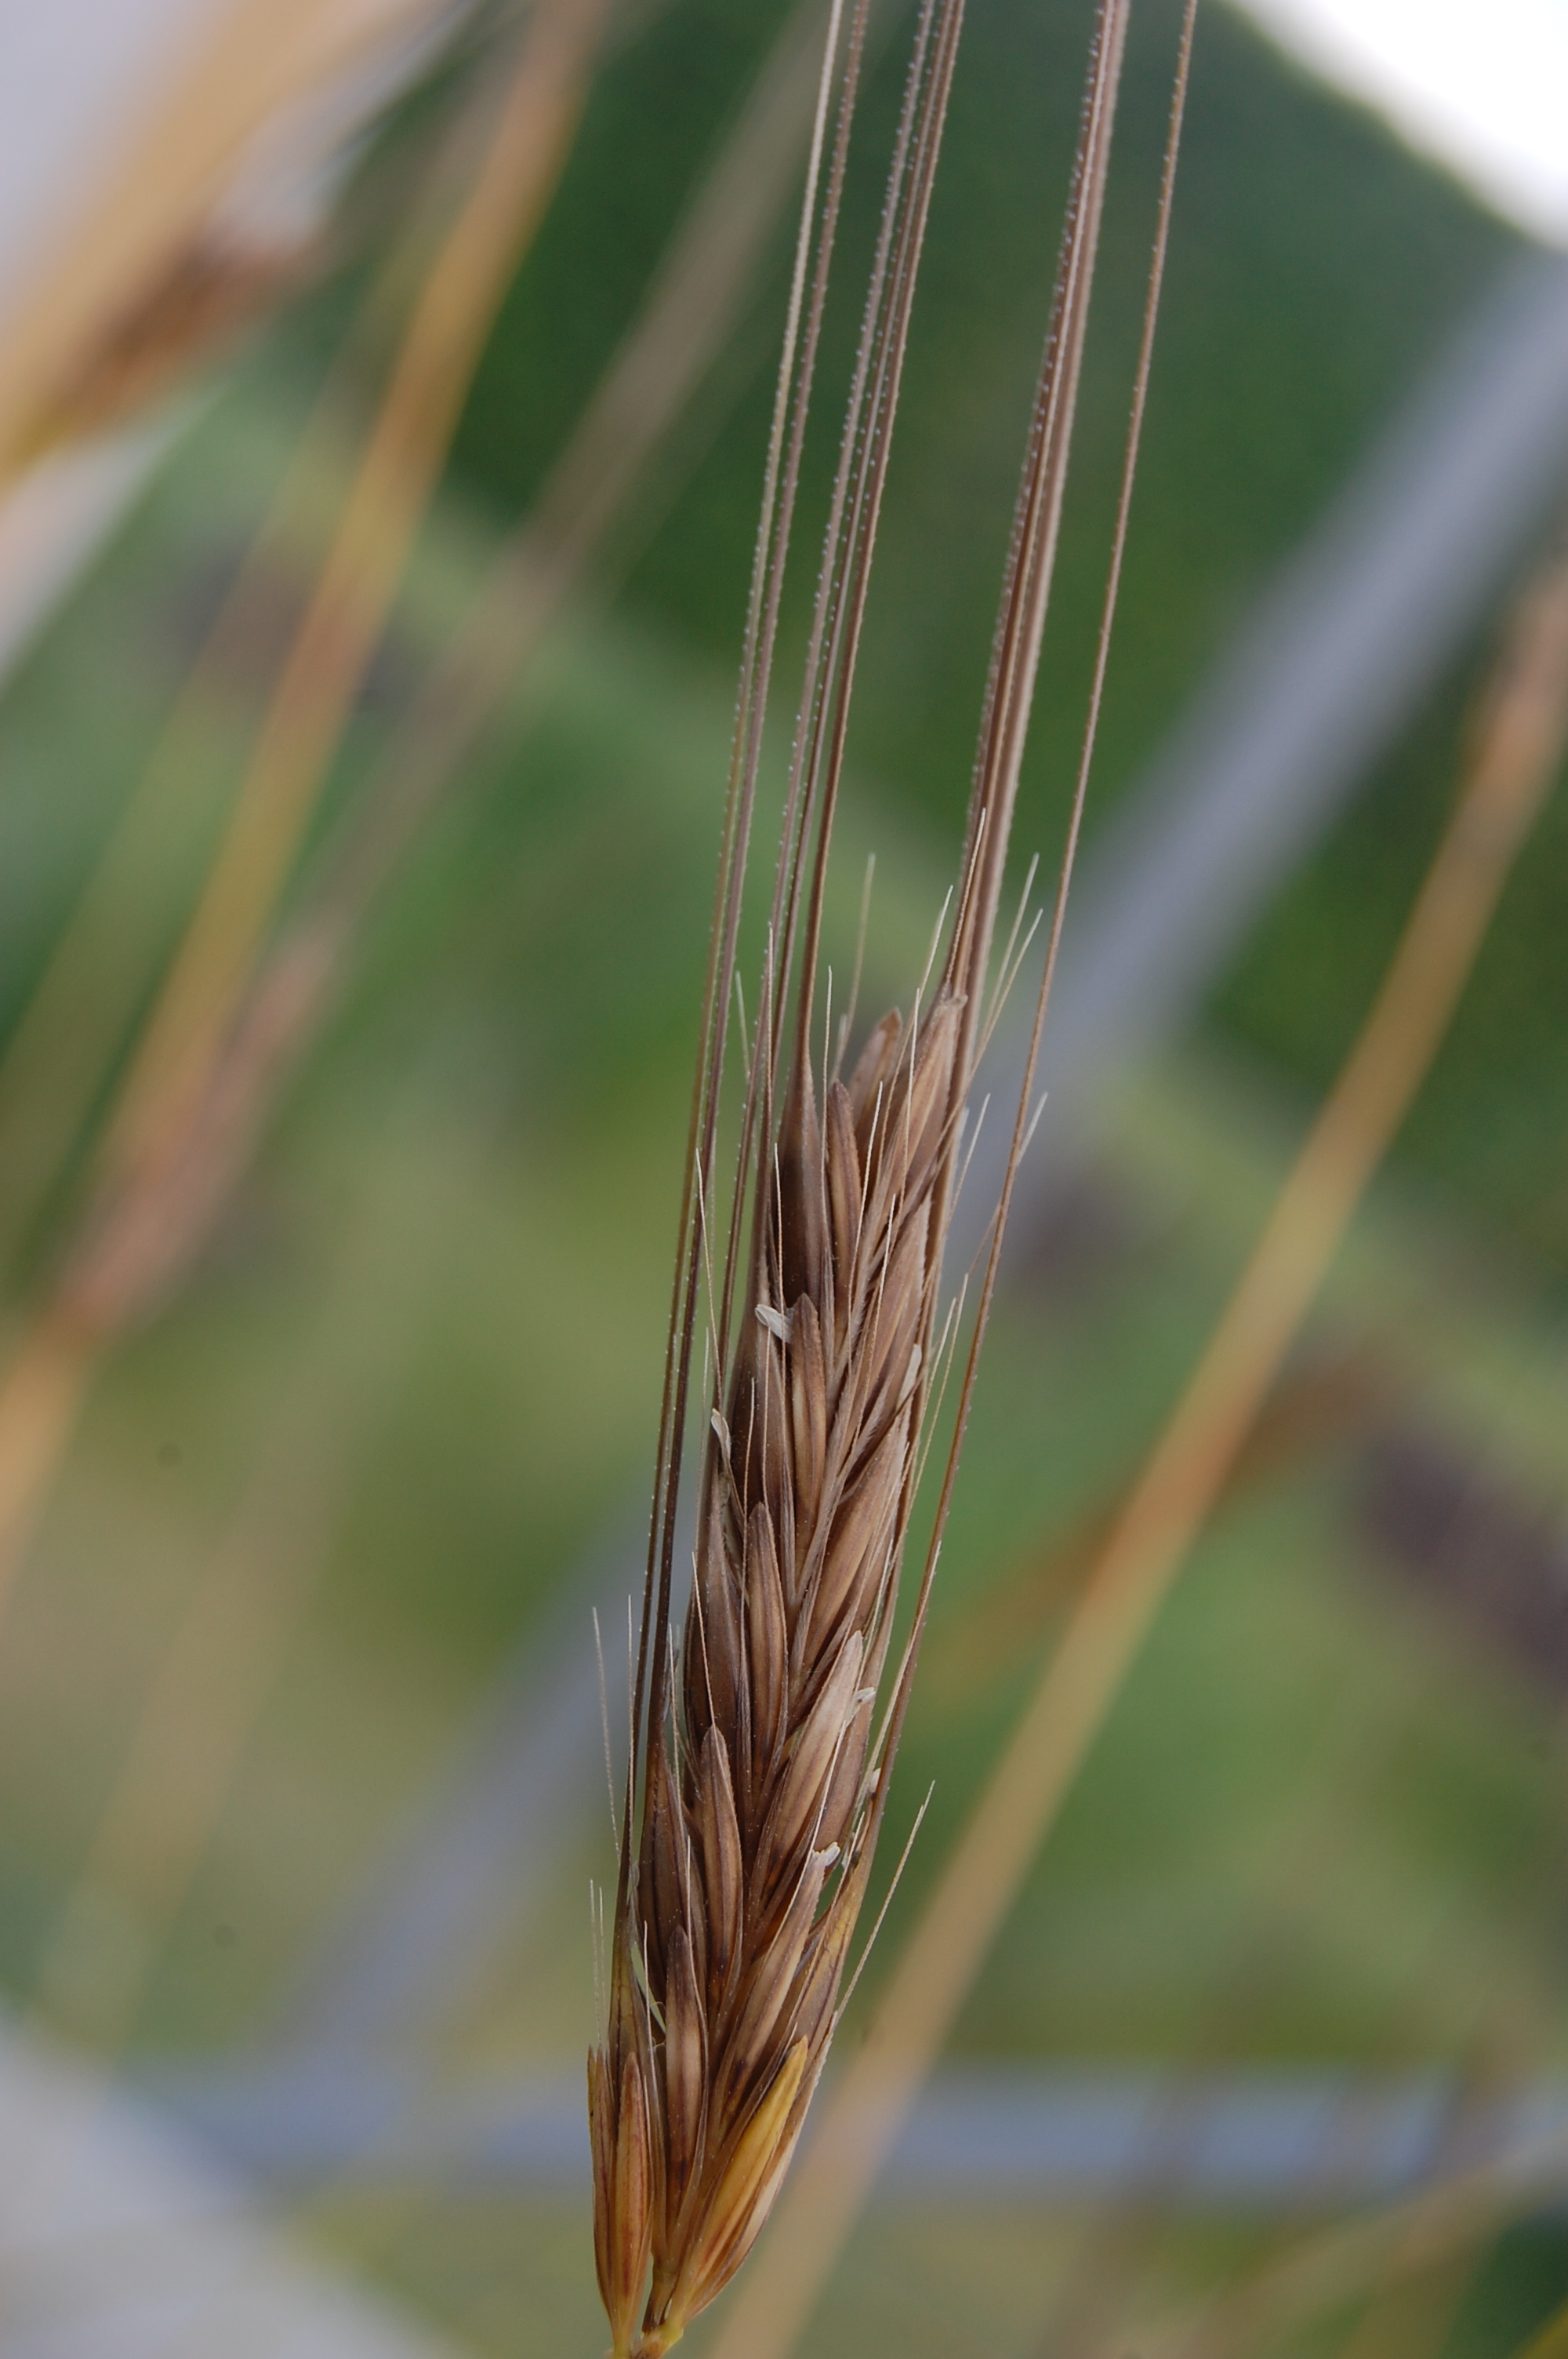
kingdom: Plantae
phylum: Tracheophyta
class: Liliopsida
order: Poales
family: Poaceae
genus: Hordeum
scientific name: Hordeum spontaneum
